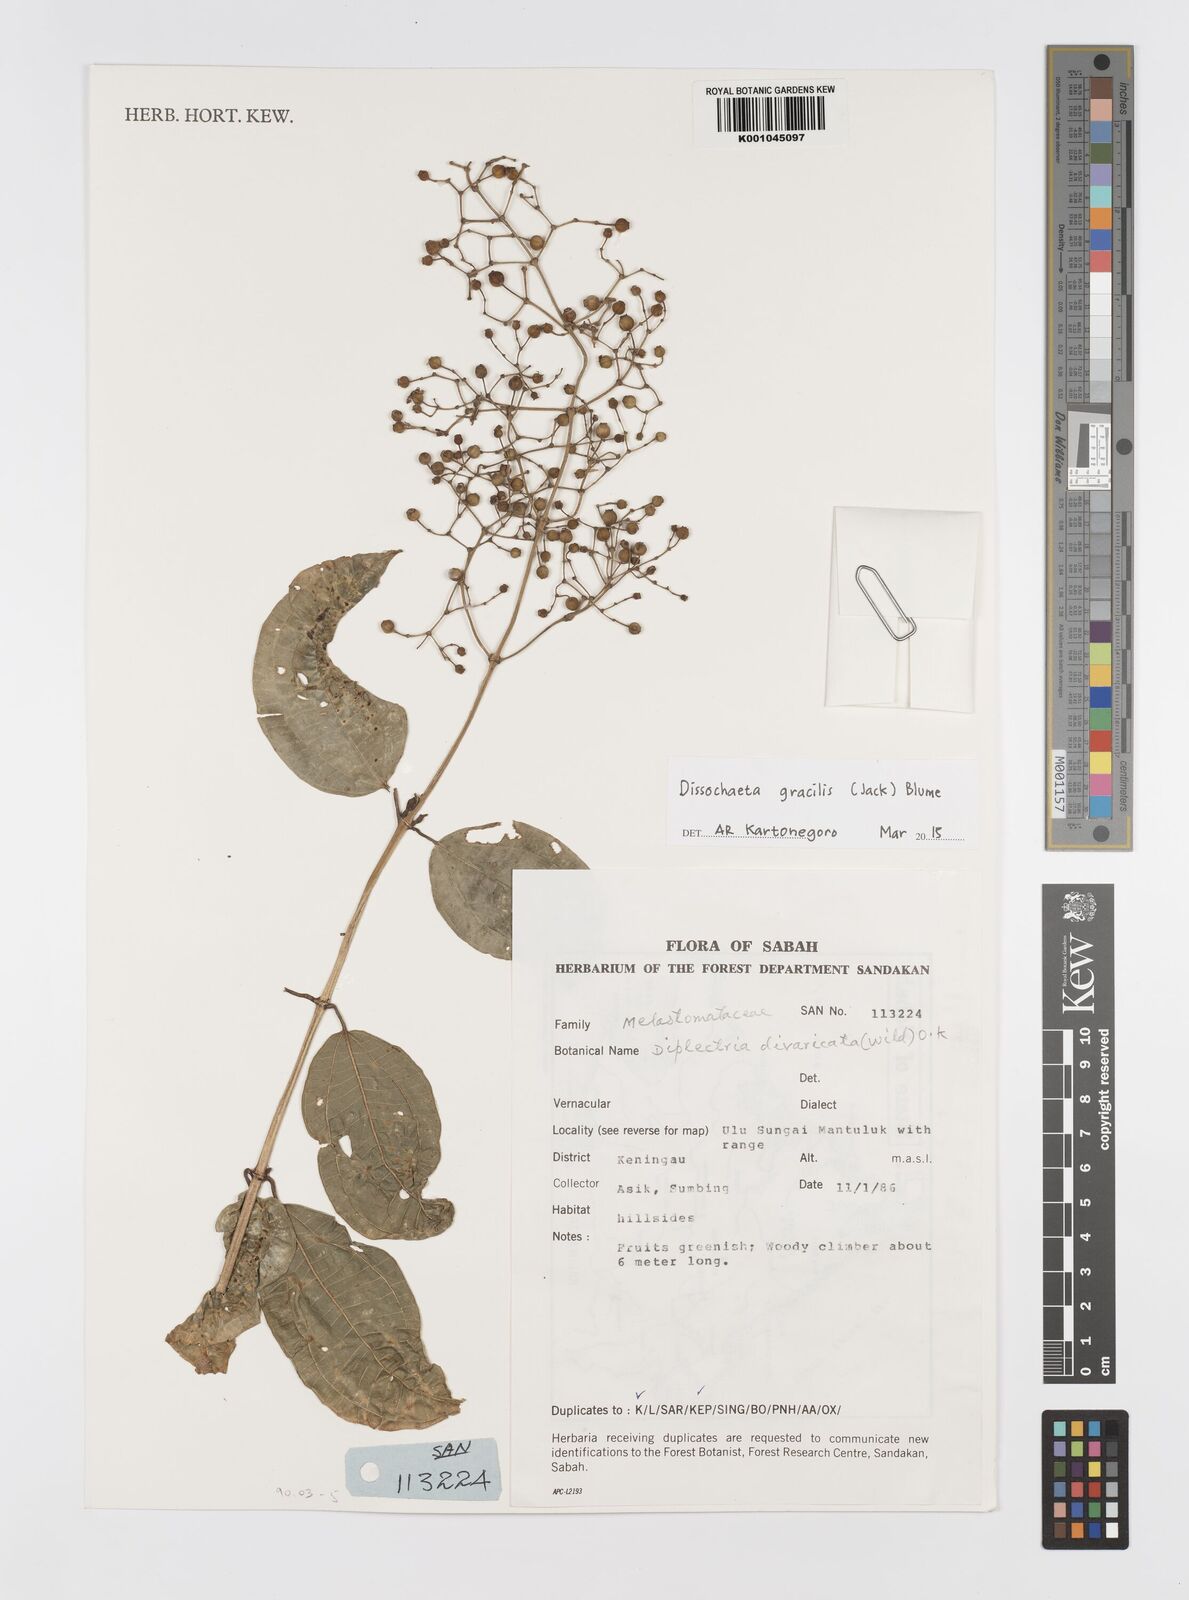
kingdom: Plantae
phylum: Tracheophyta
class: Magnoliopsida
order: Myrtales
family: Melastomataceae
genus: Dissochaeta
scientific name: Dissochaeta gracilis
